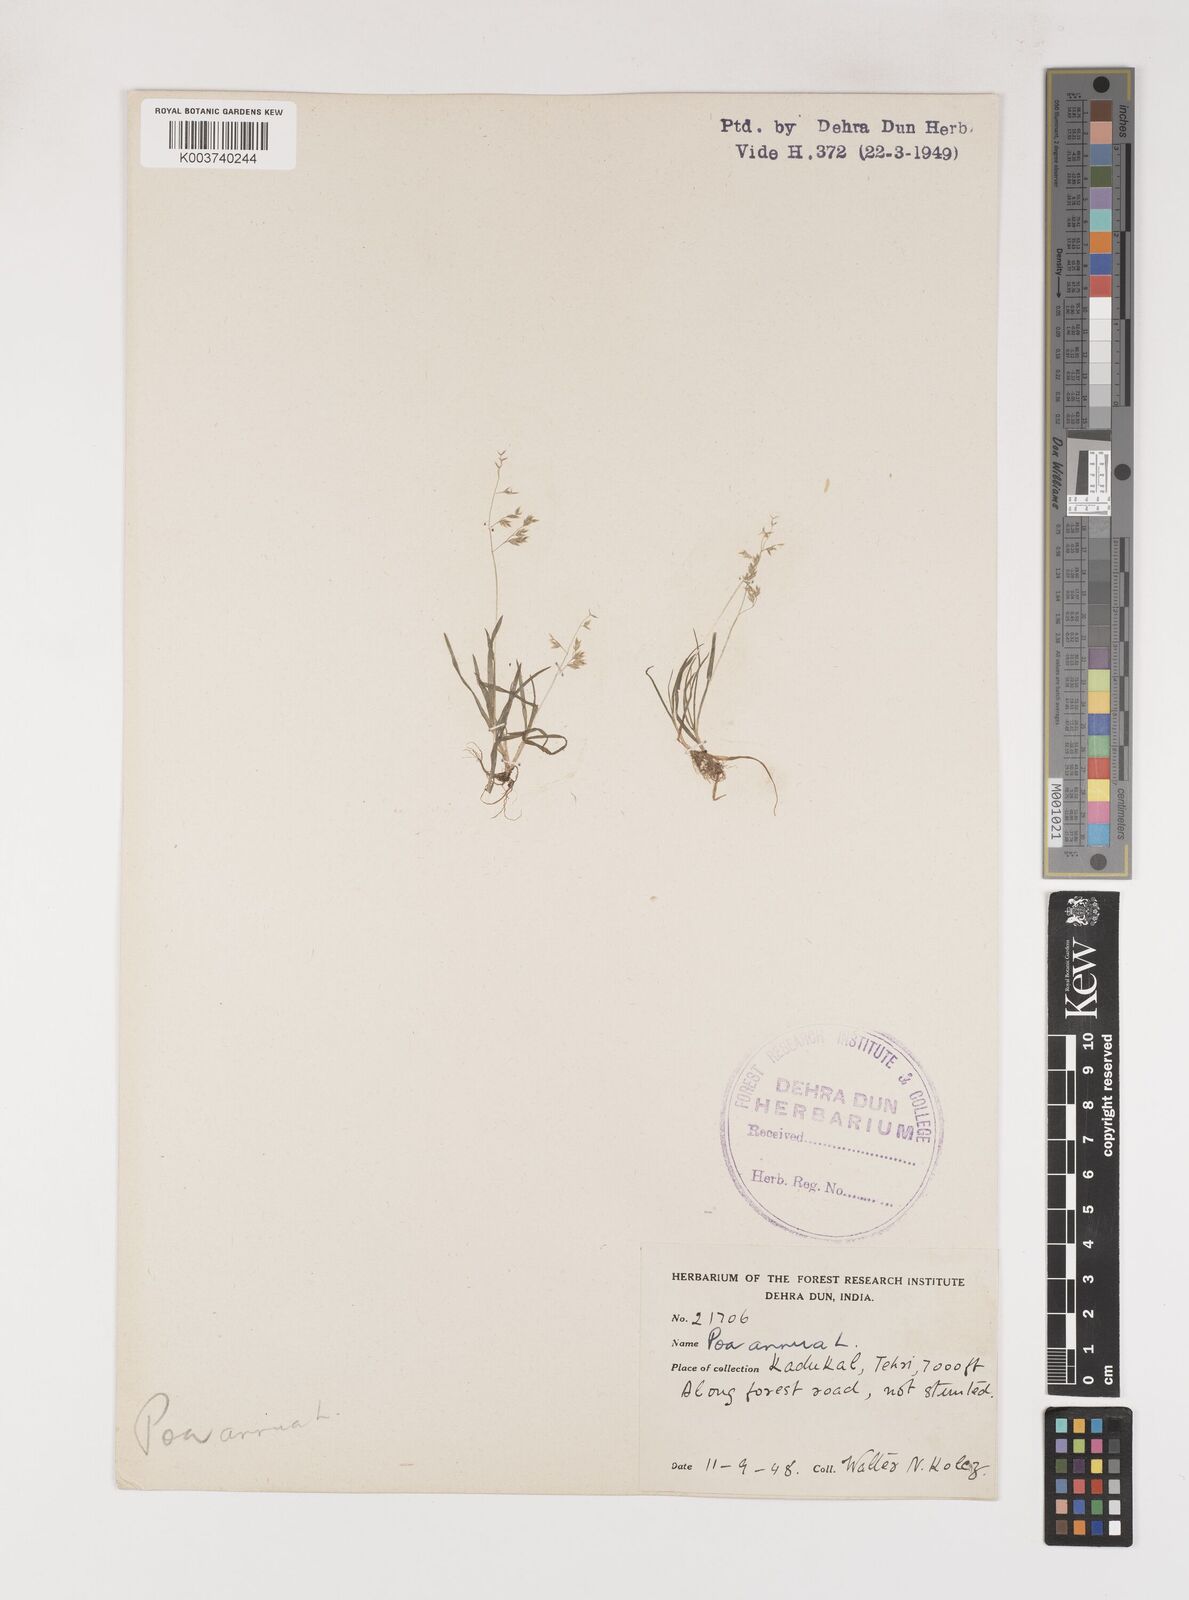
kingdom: Plantae
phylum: Tracheophyta
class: Liliopsida
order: Poales
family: Poaceae
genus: Poa
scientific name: Poa annua
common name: Annual bluegrass
